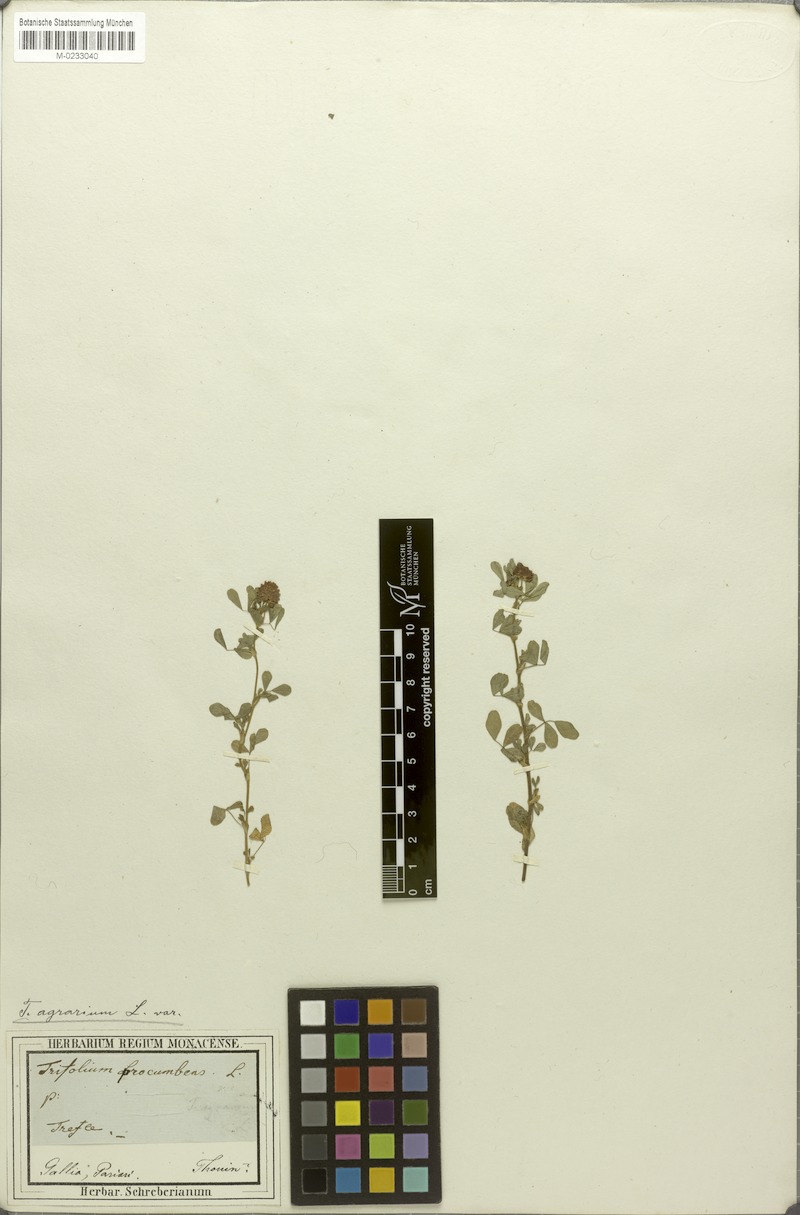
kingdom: Plantae
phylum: Tracheophyta
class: Magnoliopsida
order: Fabales
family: Fabaceae
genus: Trifolium
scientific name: Trifolium campestre
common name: Field clover
